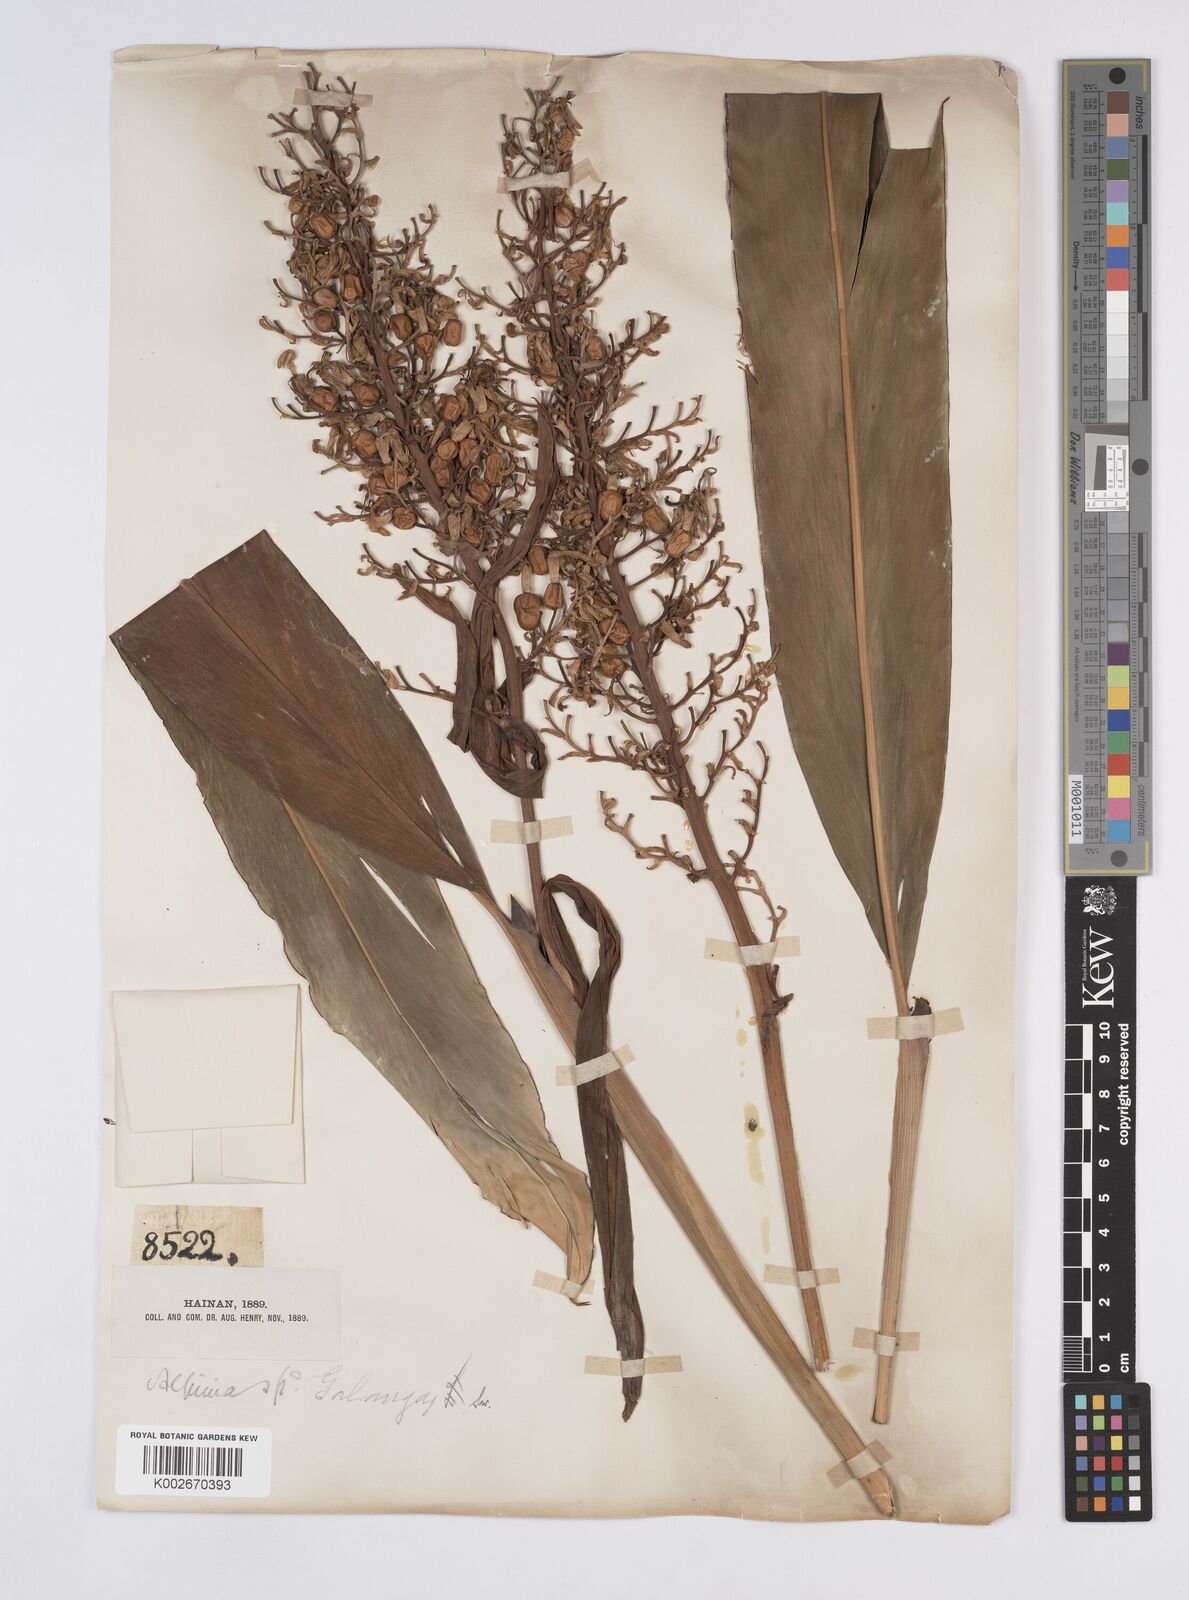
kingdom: Plantae
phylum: Tracheophyta
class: Liliopsida
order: Zingiberales
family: Zingiberaceae
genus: Alpinia
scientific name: Alpinia galanga
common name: Siamese-ginger
